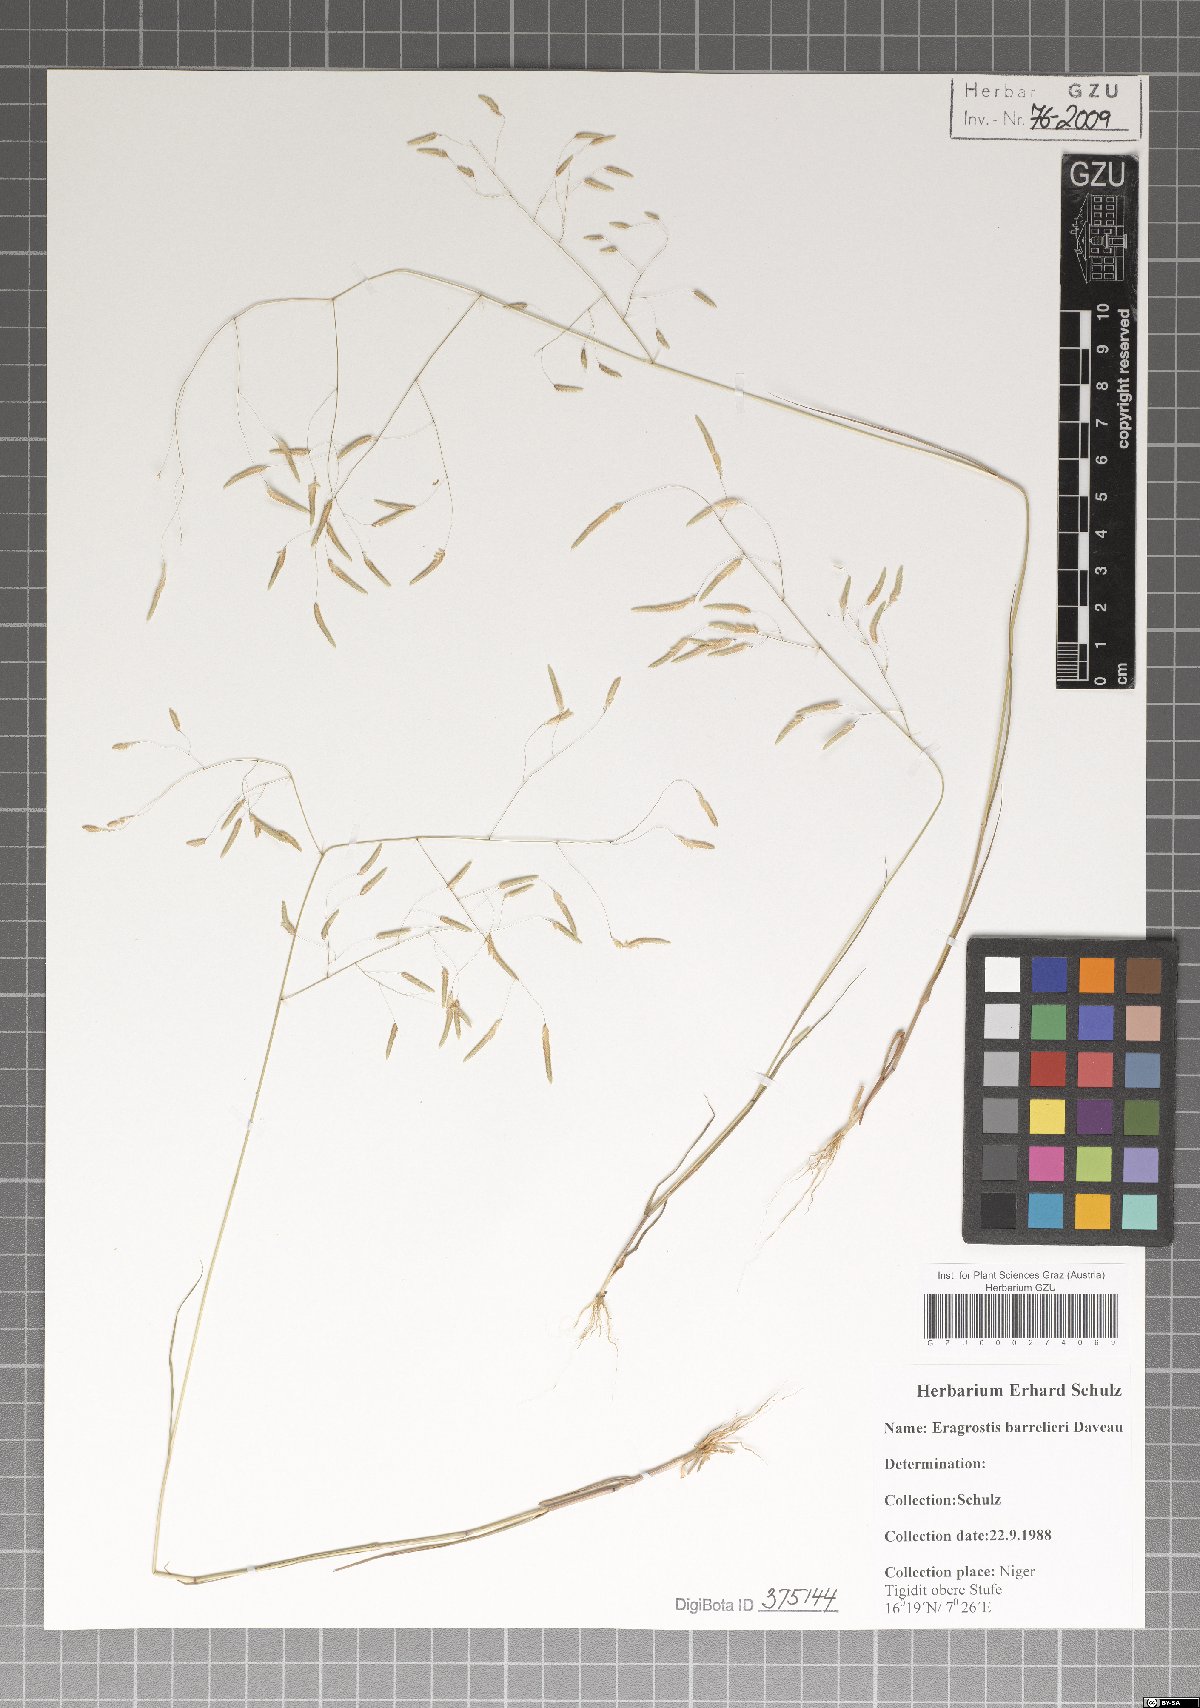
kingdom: Plantae
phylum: Tracheophyta
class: Liliopsida
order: Poales
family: Poaceae
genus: Eragrostis
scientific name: Eragrostis barrelieri
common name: Mediterranean lovegrass
